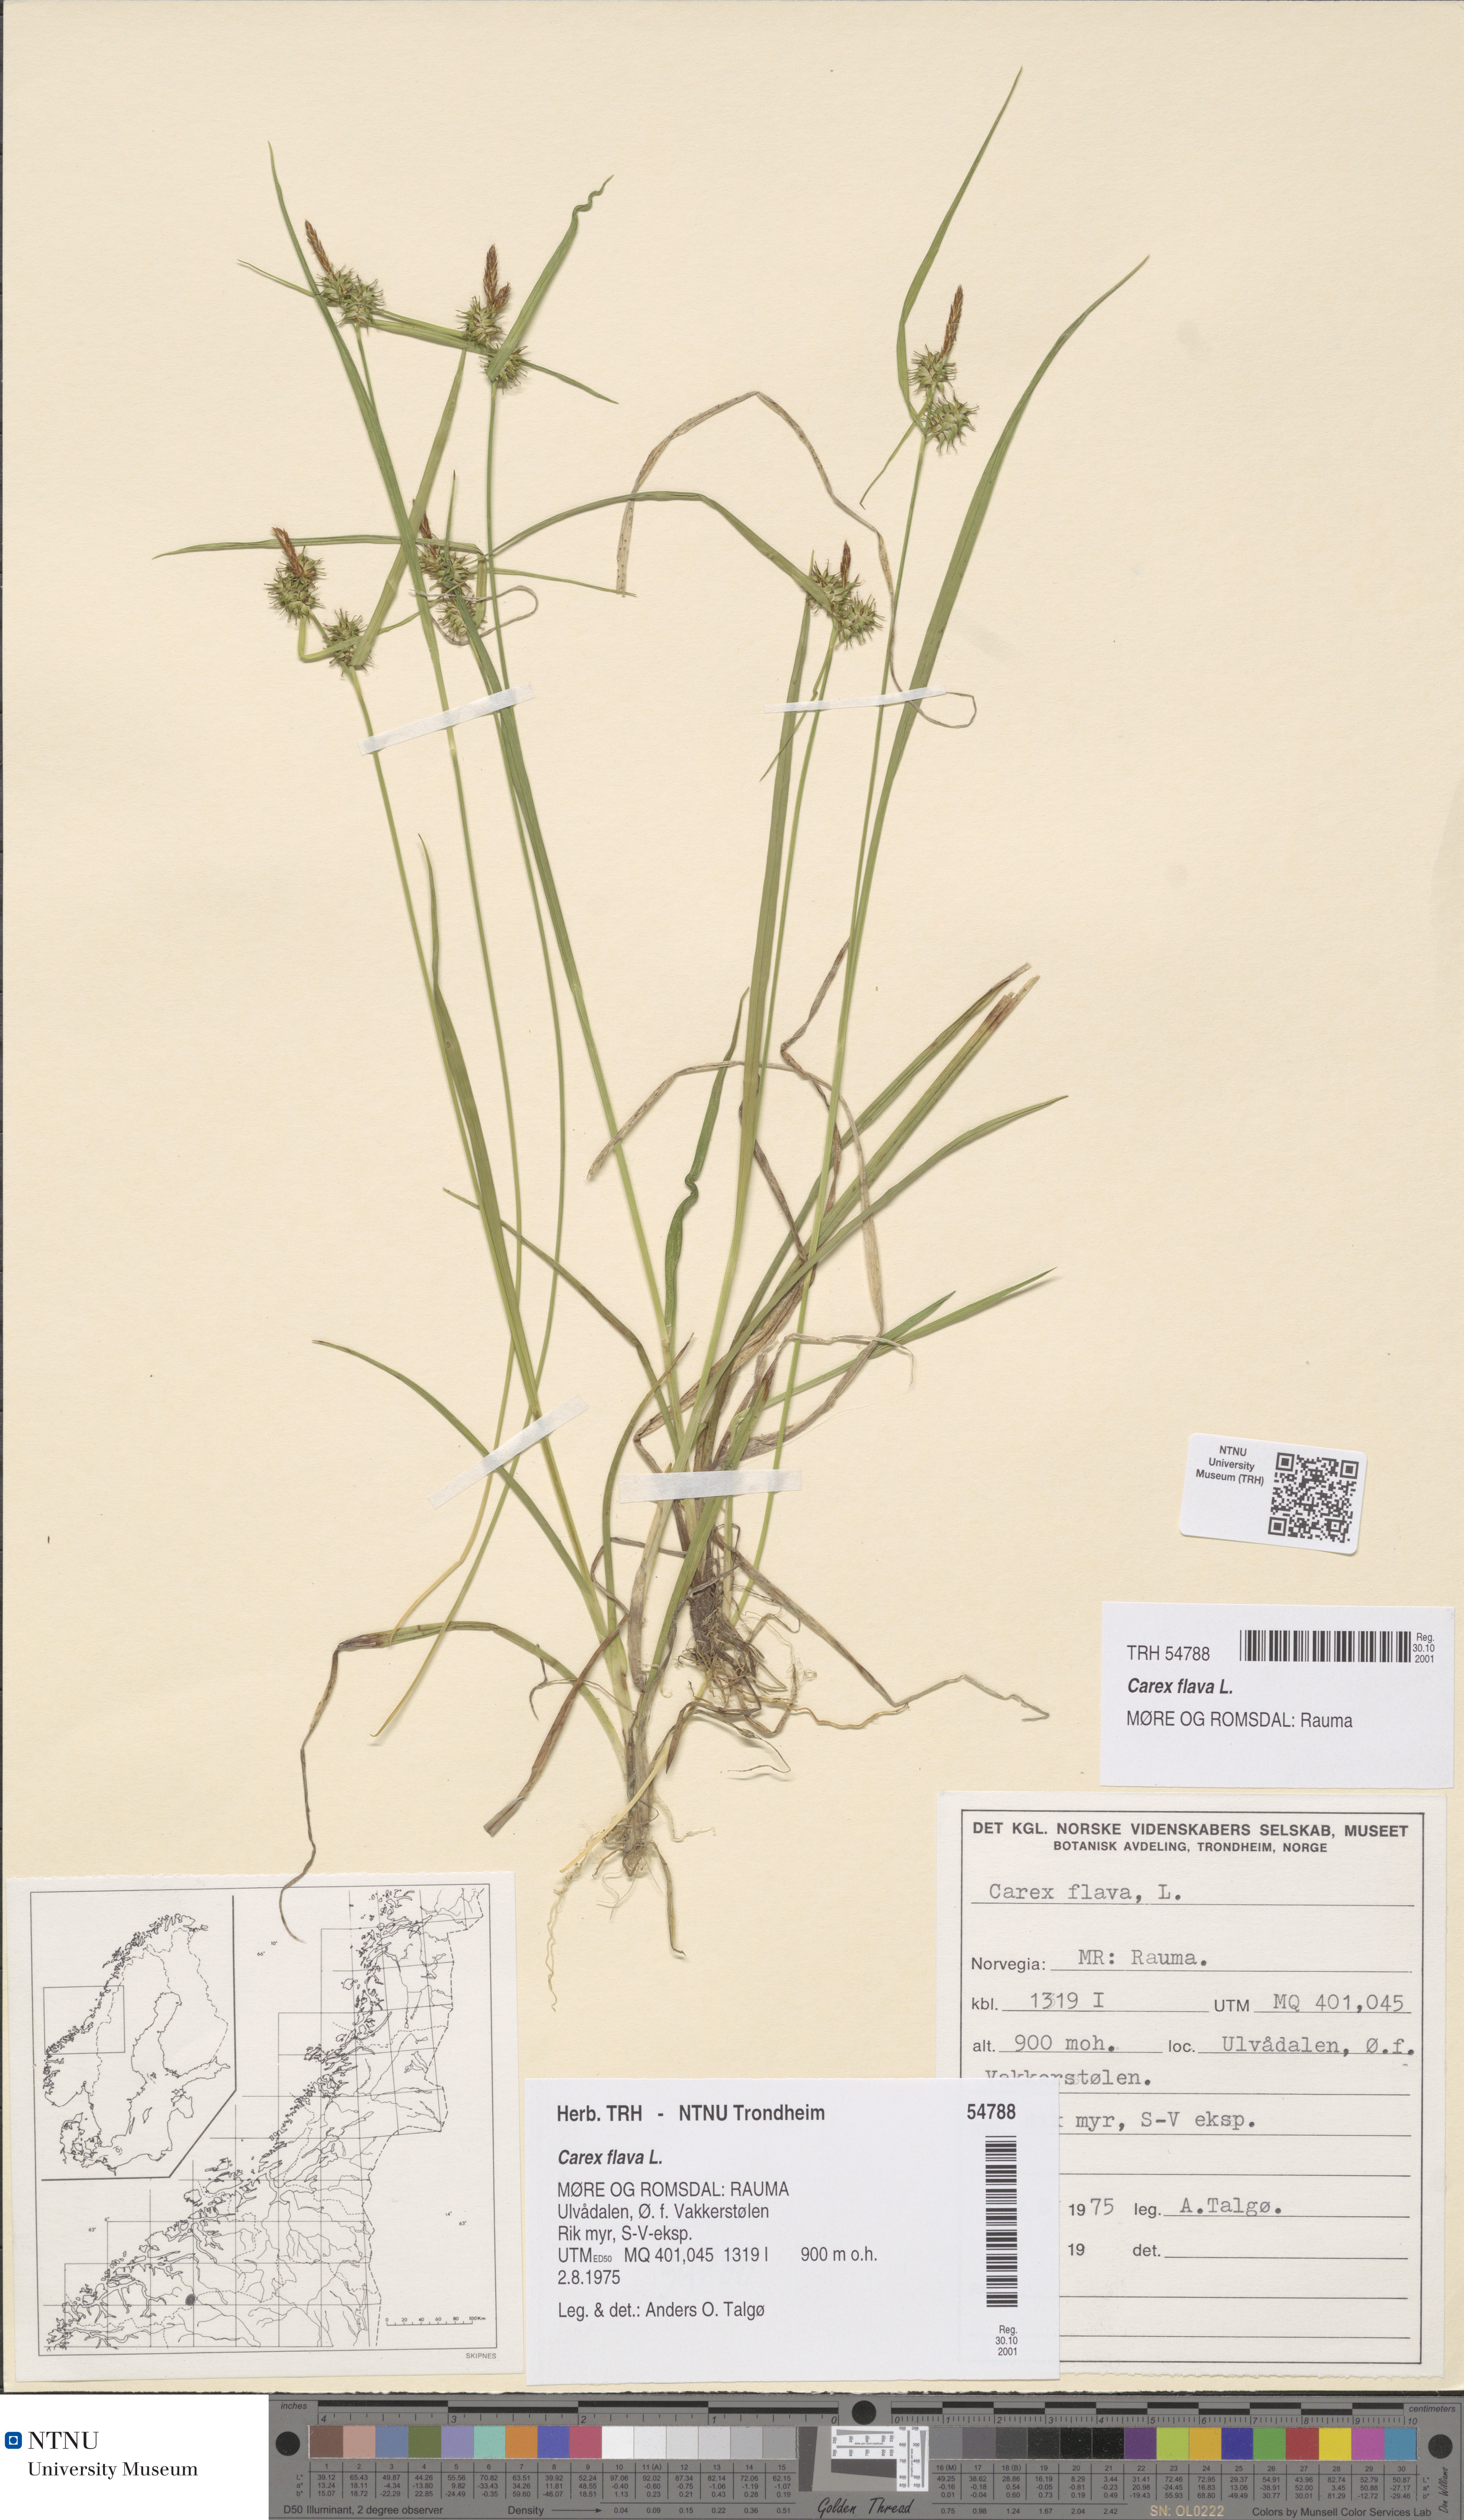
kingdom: Plantae
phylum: Tracheophyta
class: Liliopsida
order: Poales
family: Cyperaceae
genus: Carex
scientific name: Carex flava
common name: Large yellow-sedge
